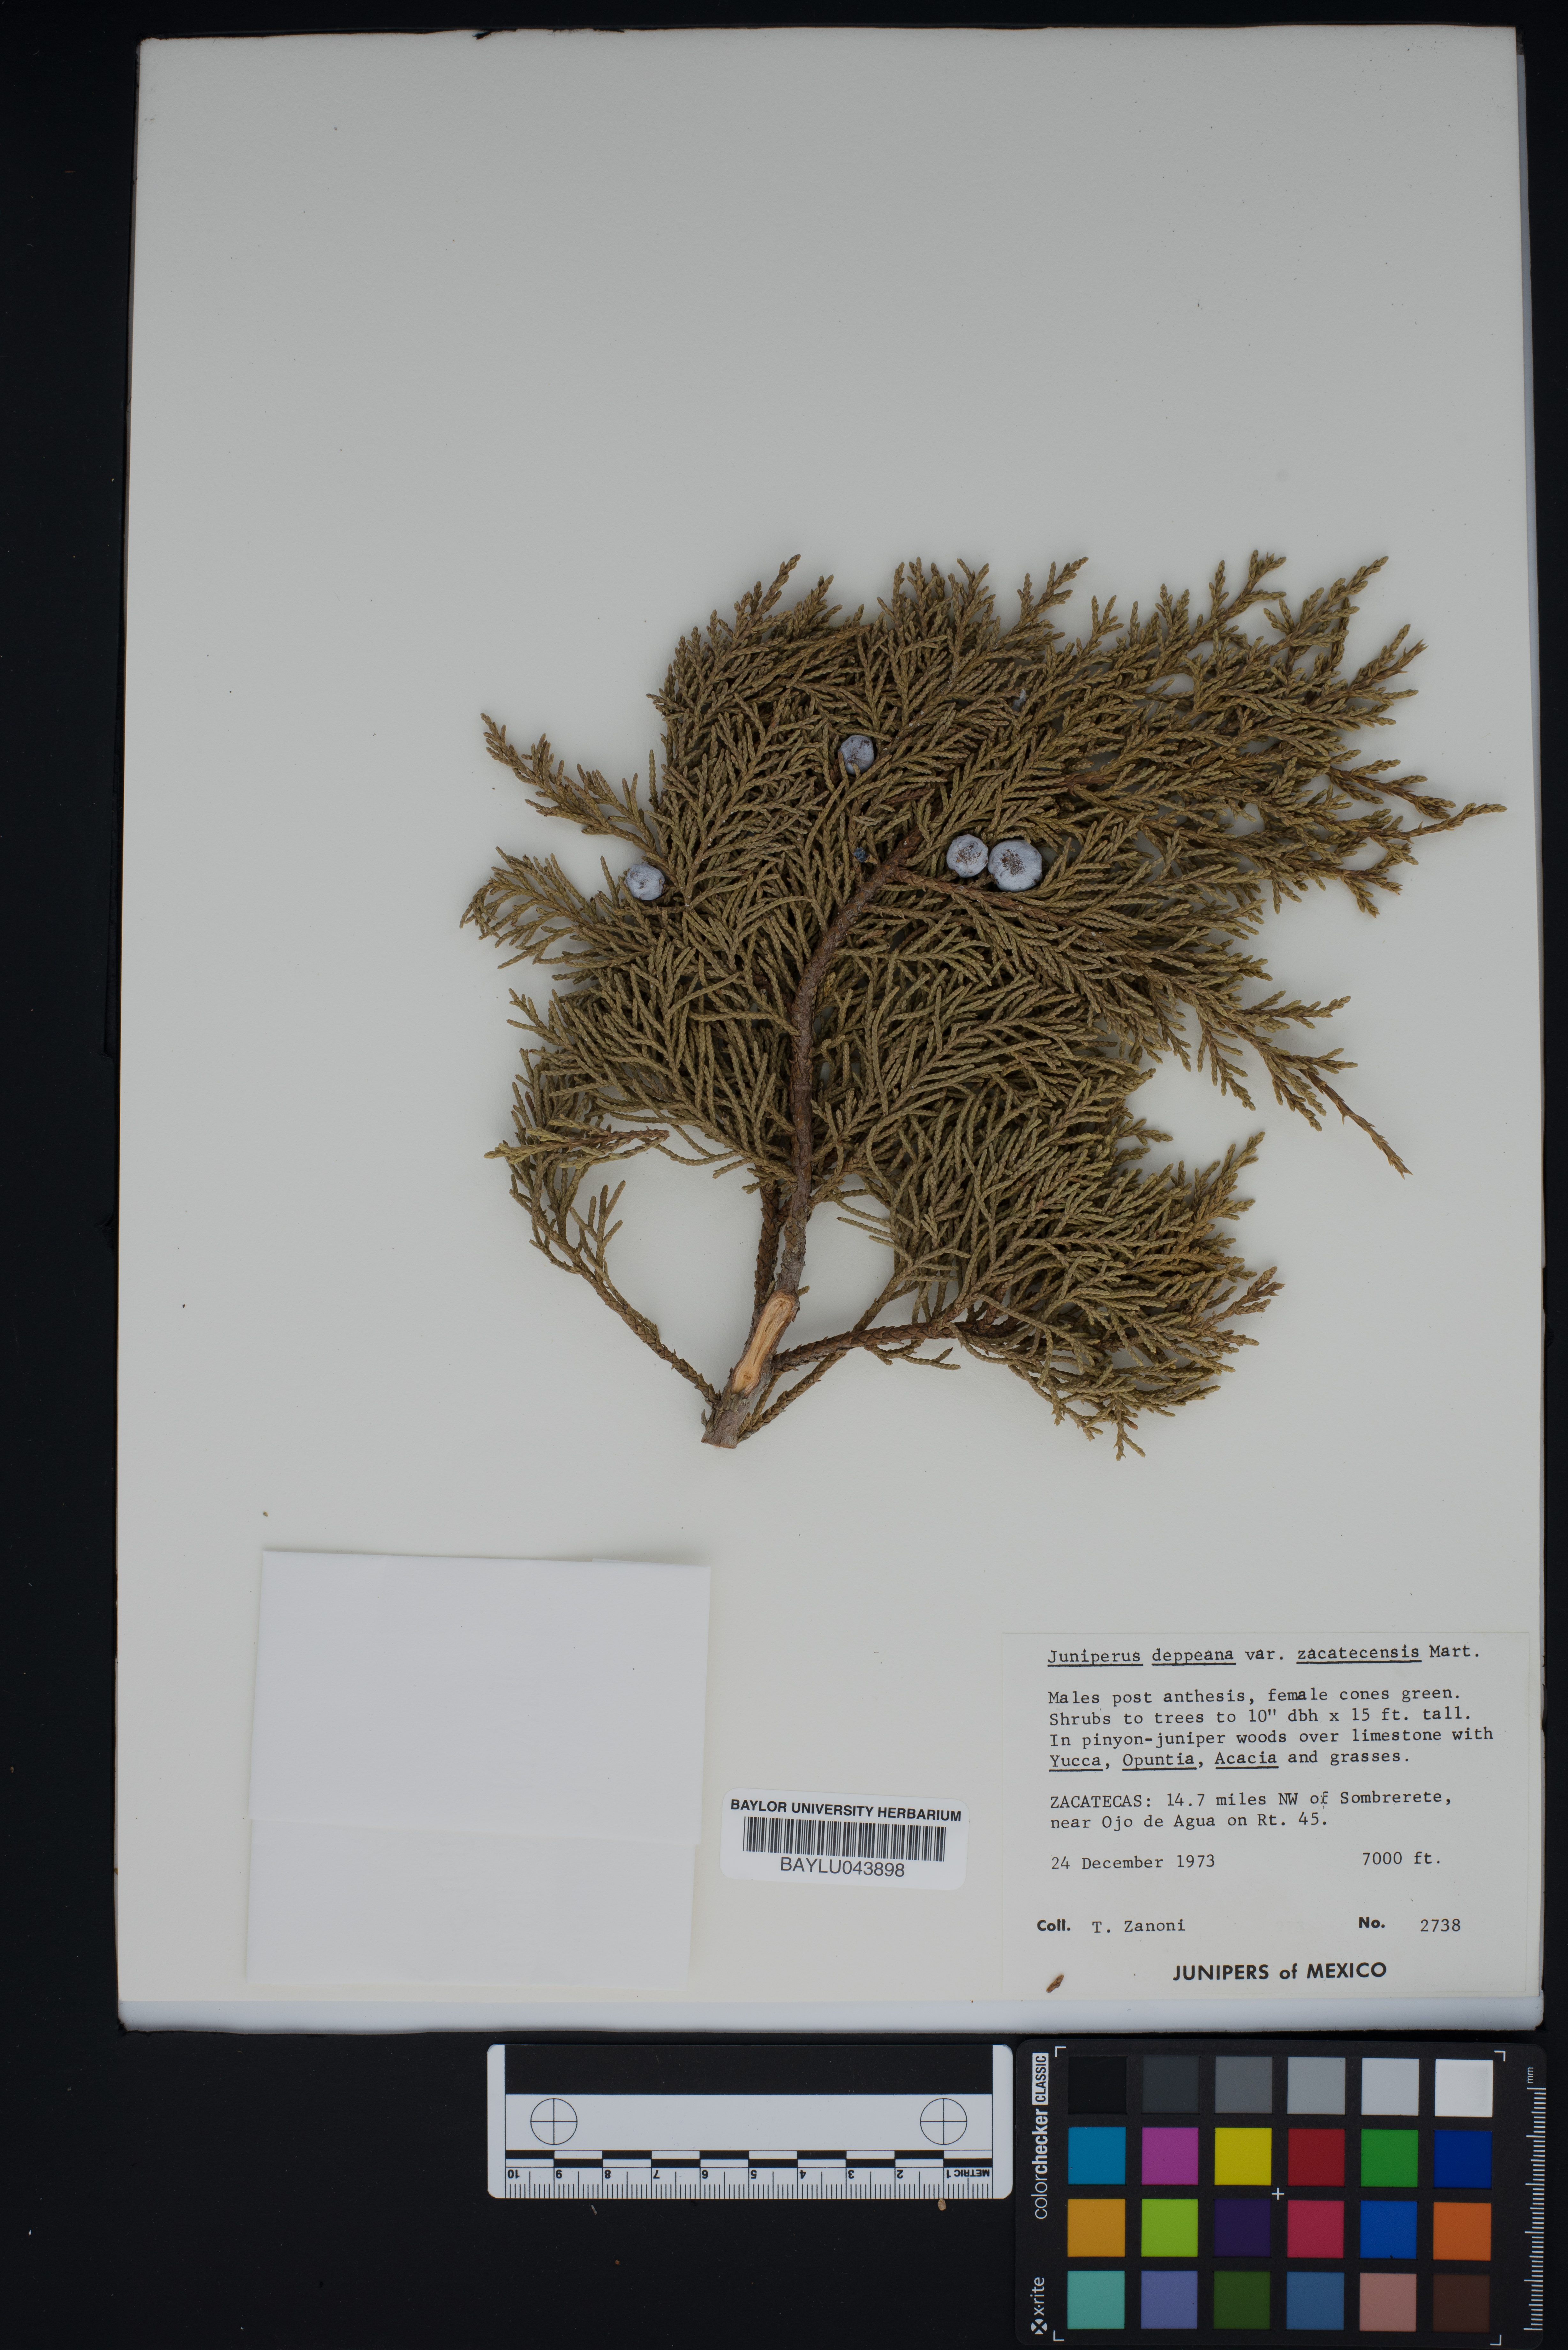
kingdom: Plantae
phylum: Tracheophyta
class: Pinopsida
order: Pinales
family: Cupressaceae
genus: Juniperus
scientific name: Juniperus deppeana
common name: Alligator juniper
